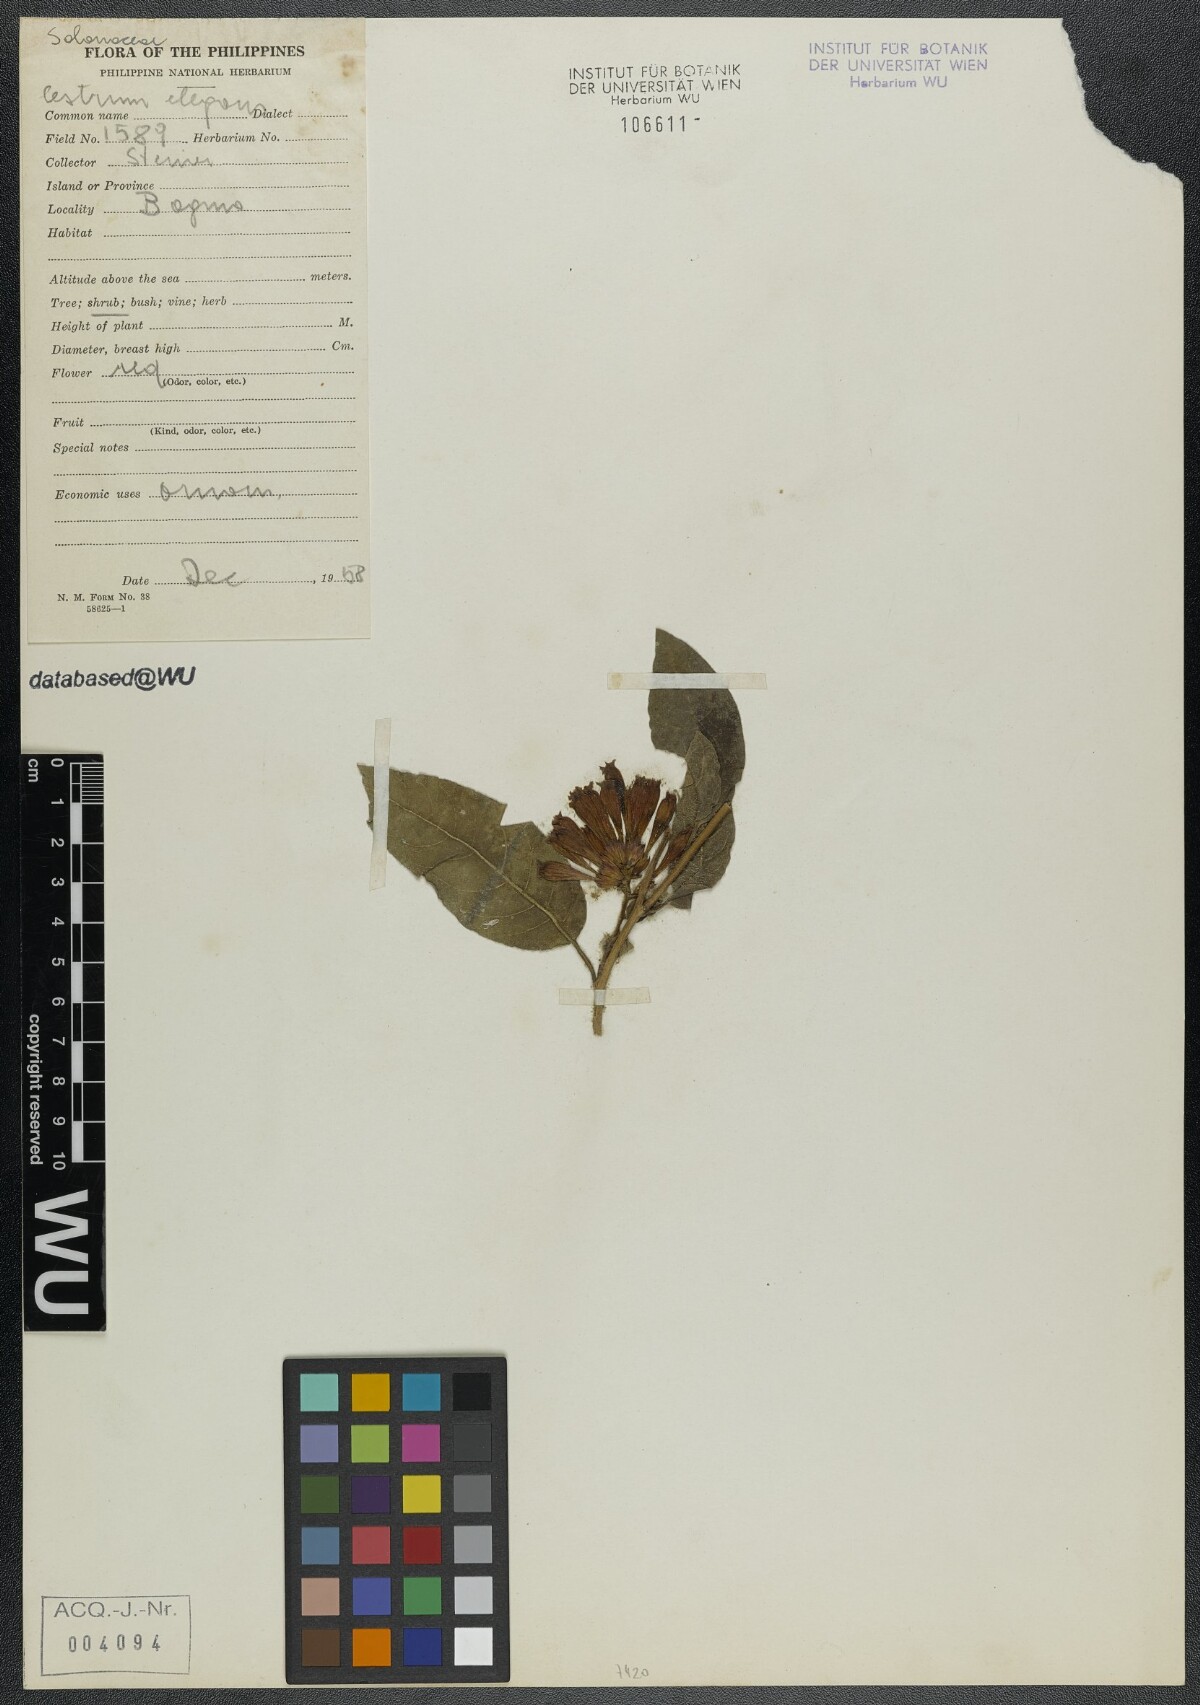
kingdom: Plantae
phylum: Tracheophyta
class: Magnoliopsida
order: Solanales
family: Solanaceae
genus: Cestrum
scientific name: Cestrum elegans
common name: Crimson cestrum
